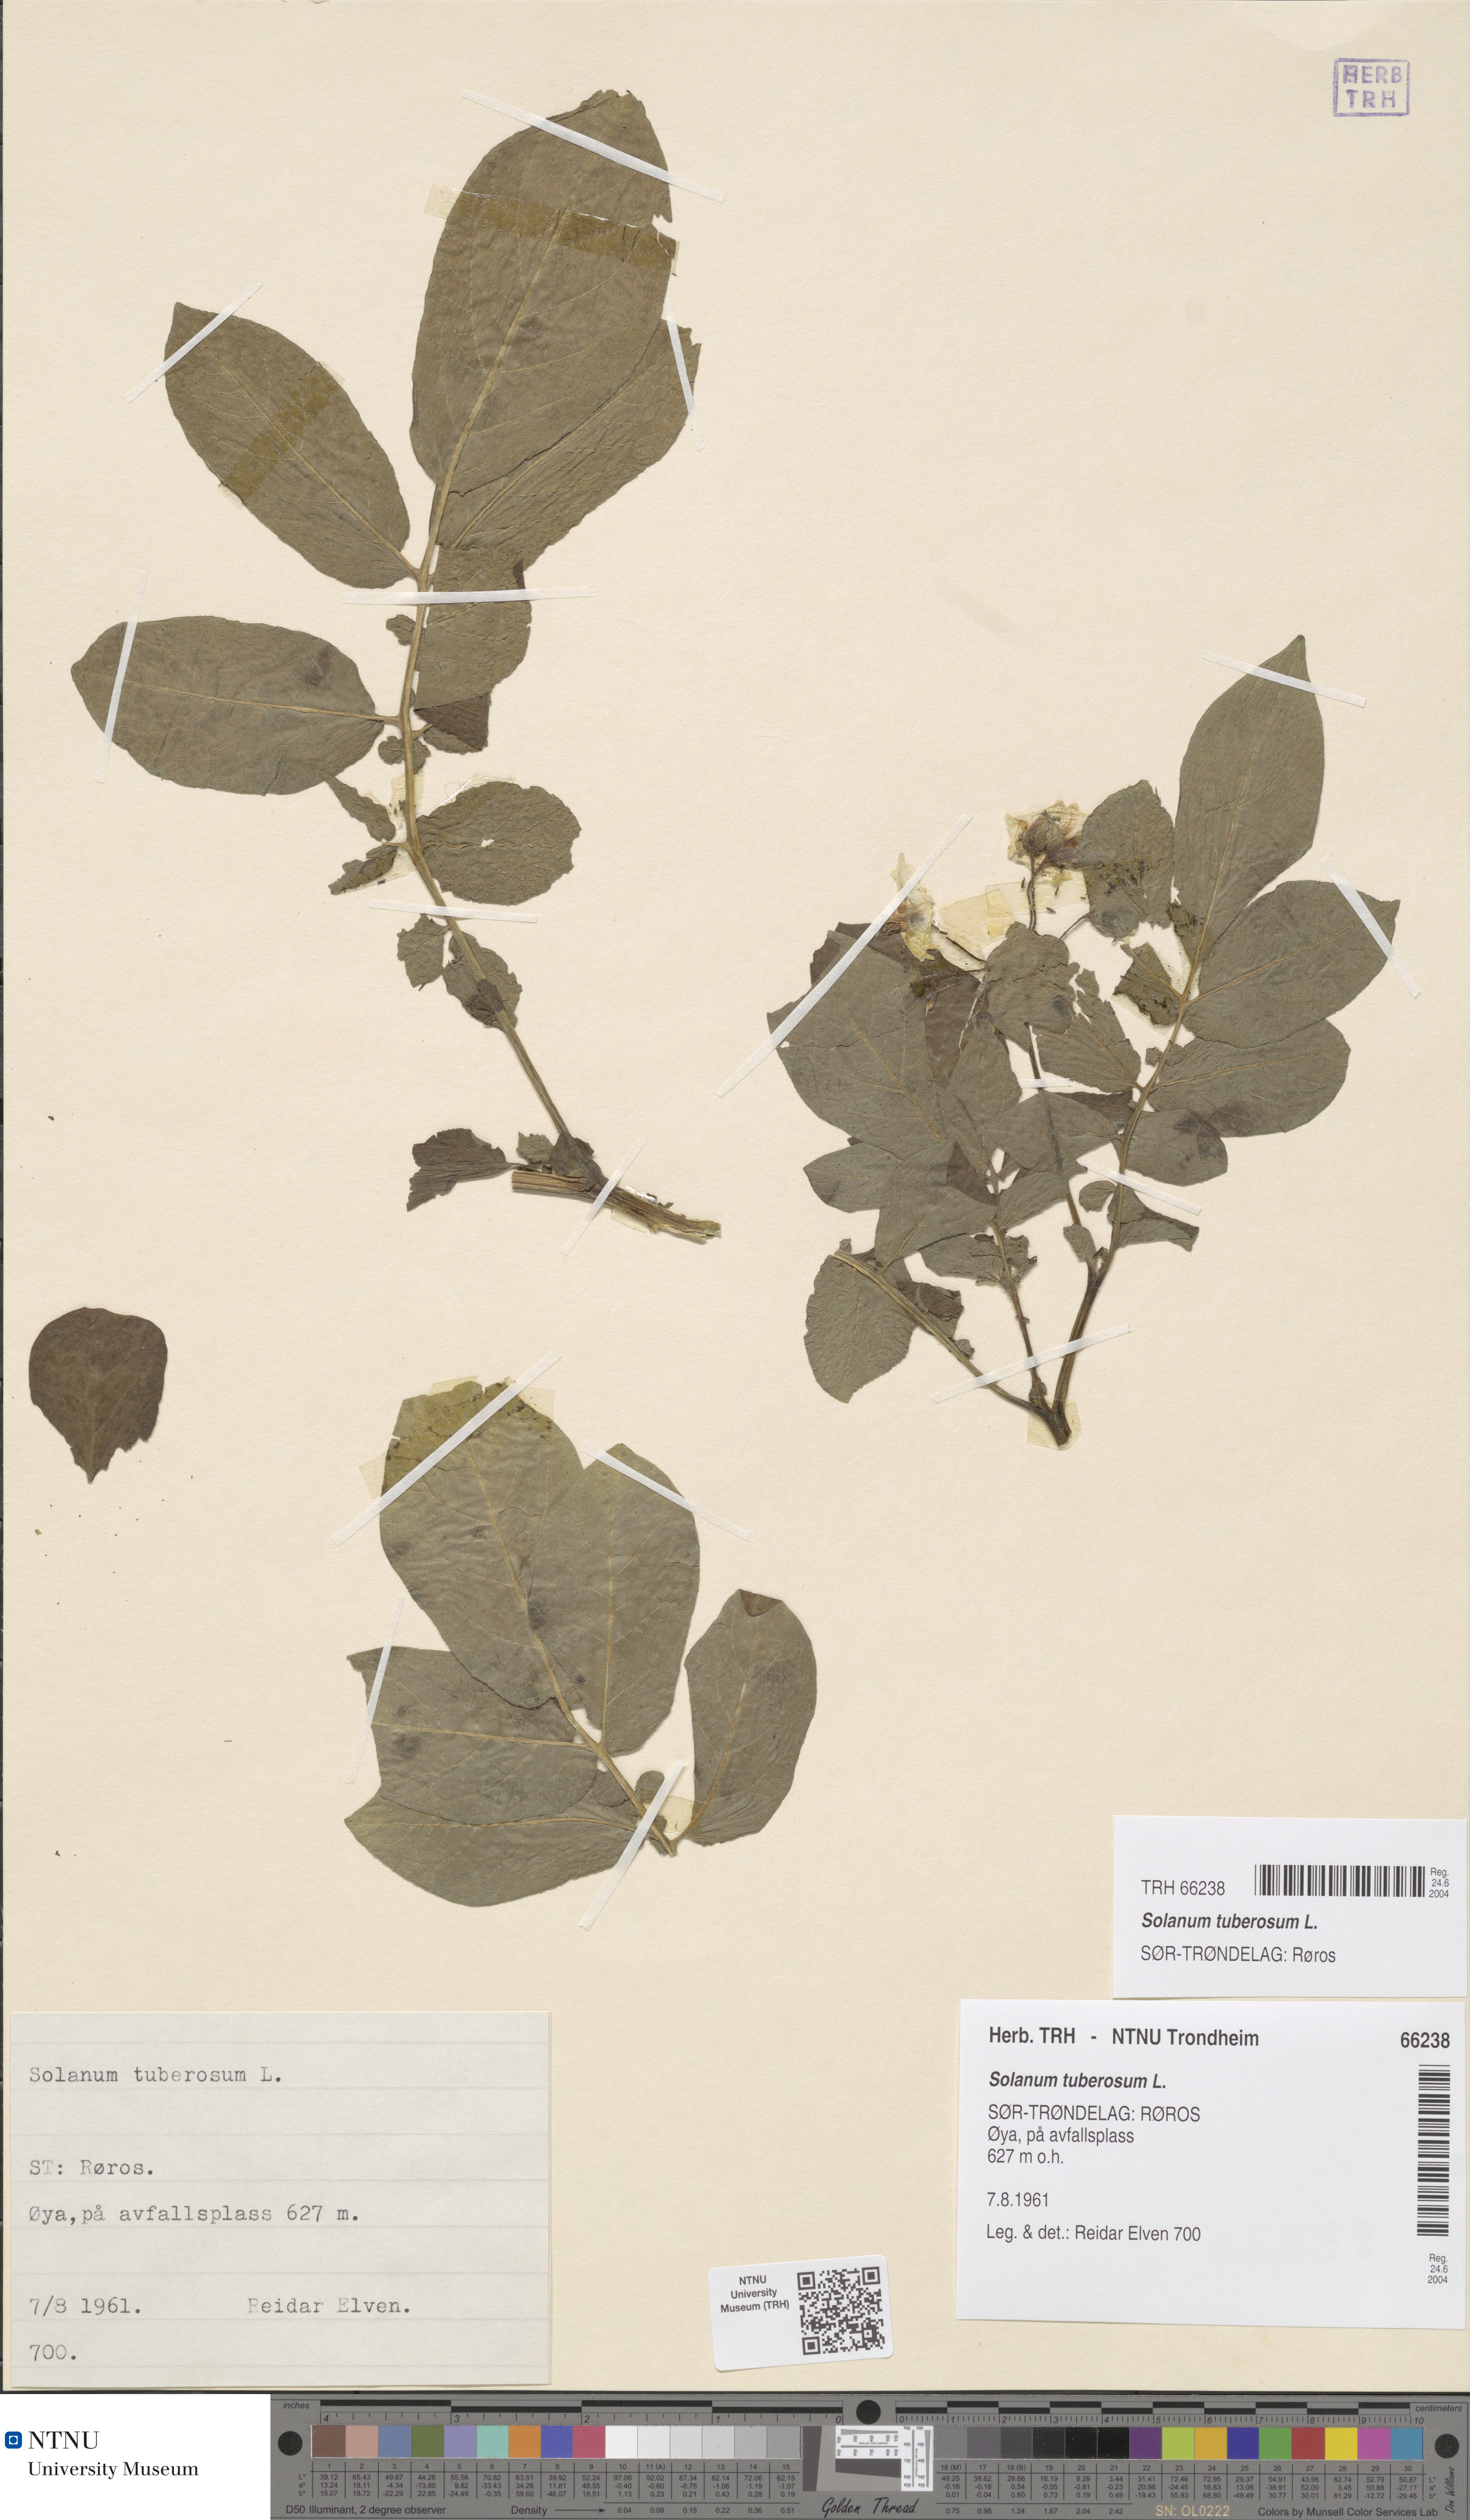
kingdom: Plantae
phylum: Tracheophyta
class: Magnoliopsida
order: Solanales
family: Solanaceae
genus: Solanum
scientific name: Solanum tuberosum
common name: Potato
